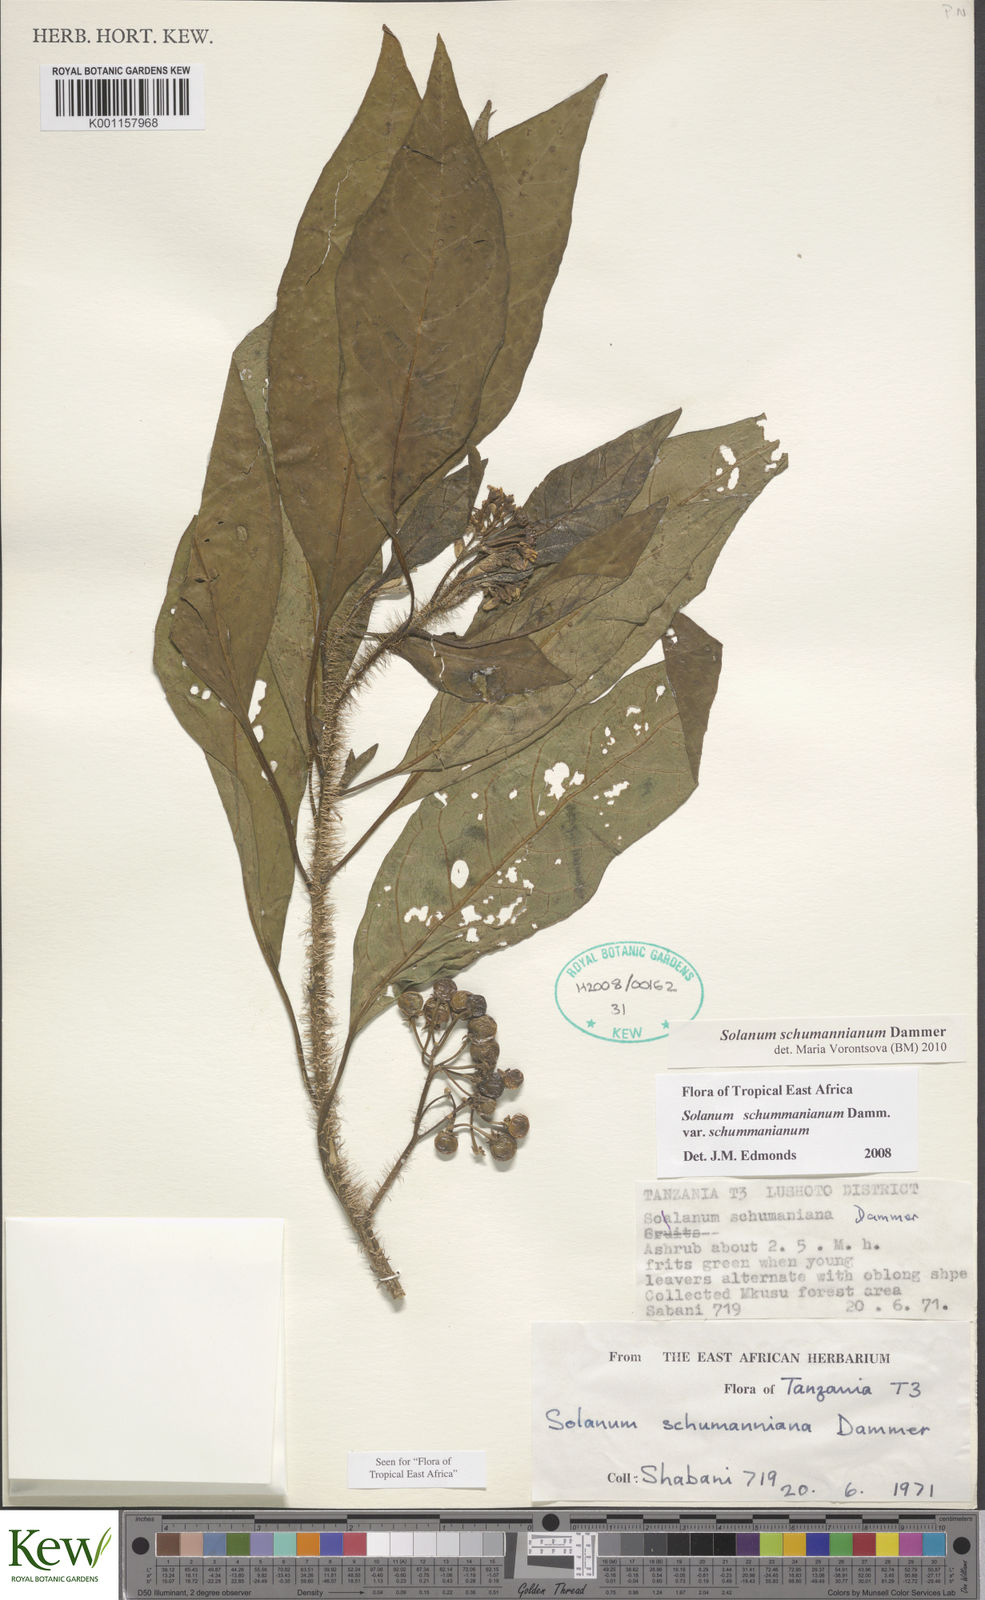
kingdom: Plantae
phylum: Tracheophyta
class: Magnoliopsida
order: Solanales
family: Solanaceae
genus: Solanum
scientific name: Solanum schumannianum
